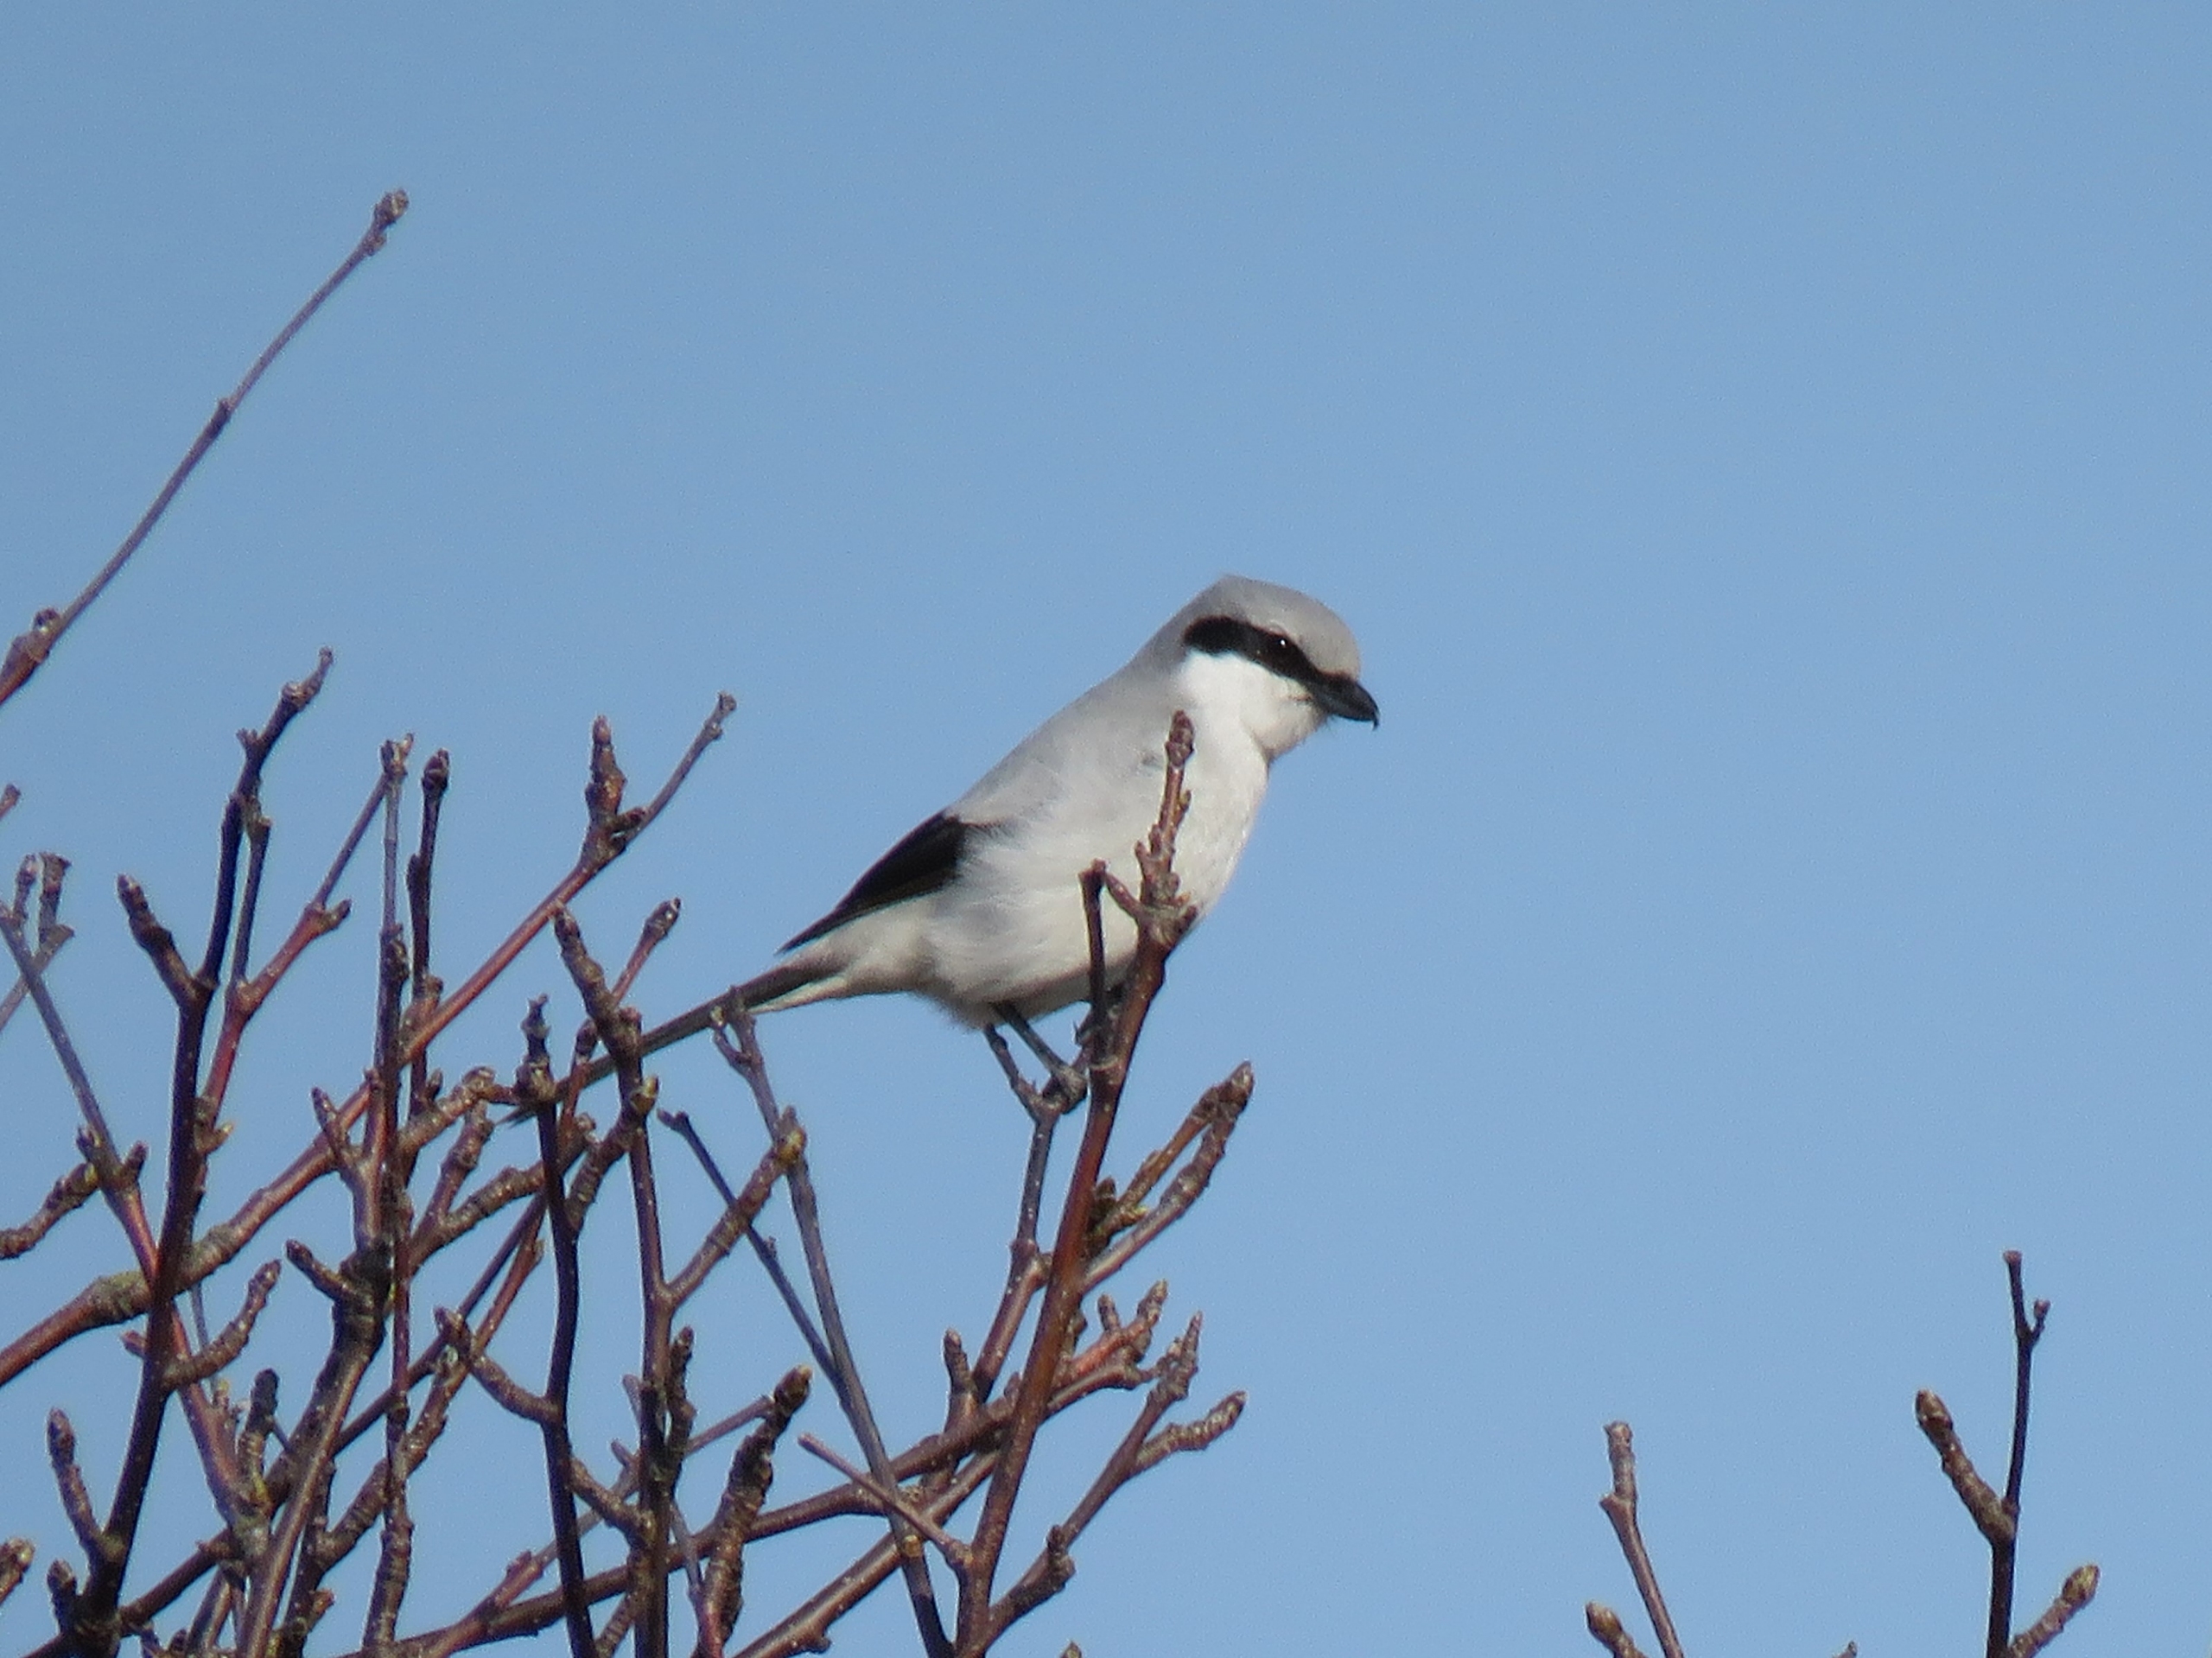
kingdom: Animalia
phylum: Chordata
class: Aves
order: Passeriformes
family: Laniidae
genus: Lanius
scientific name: Lanius excubitor
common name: Stor tornskade
